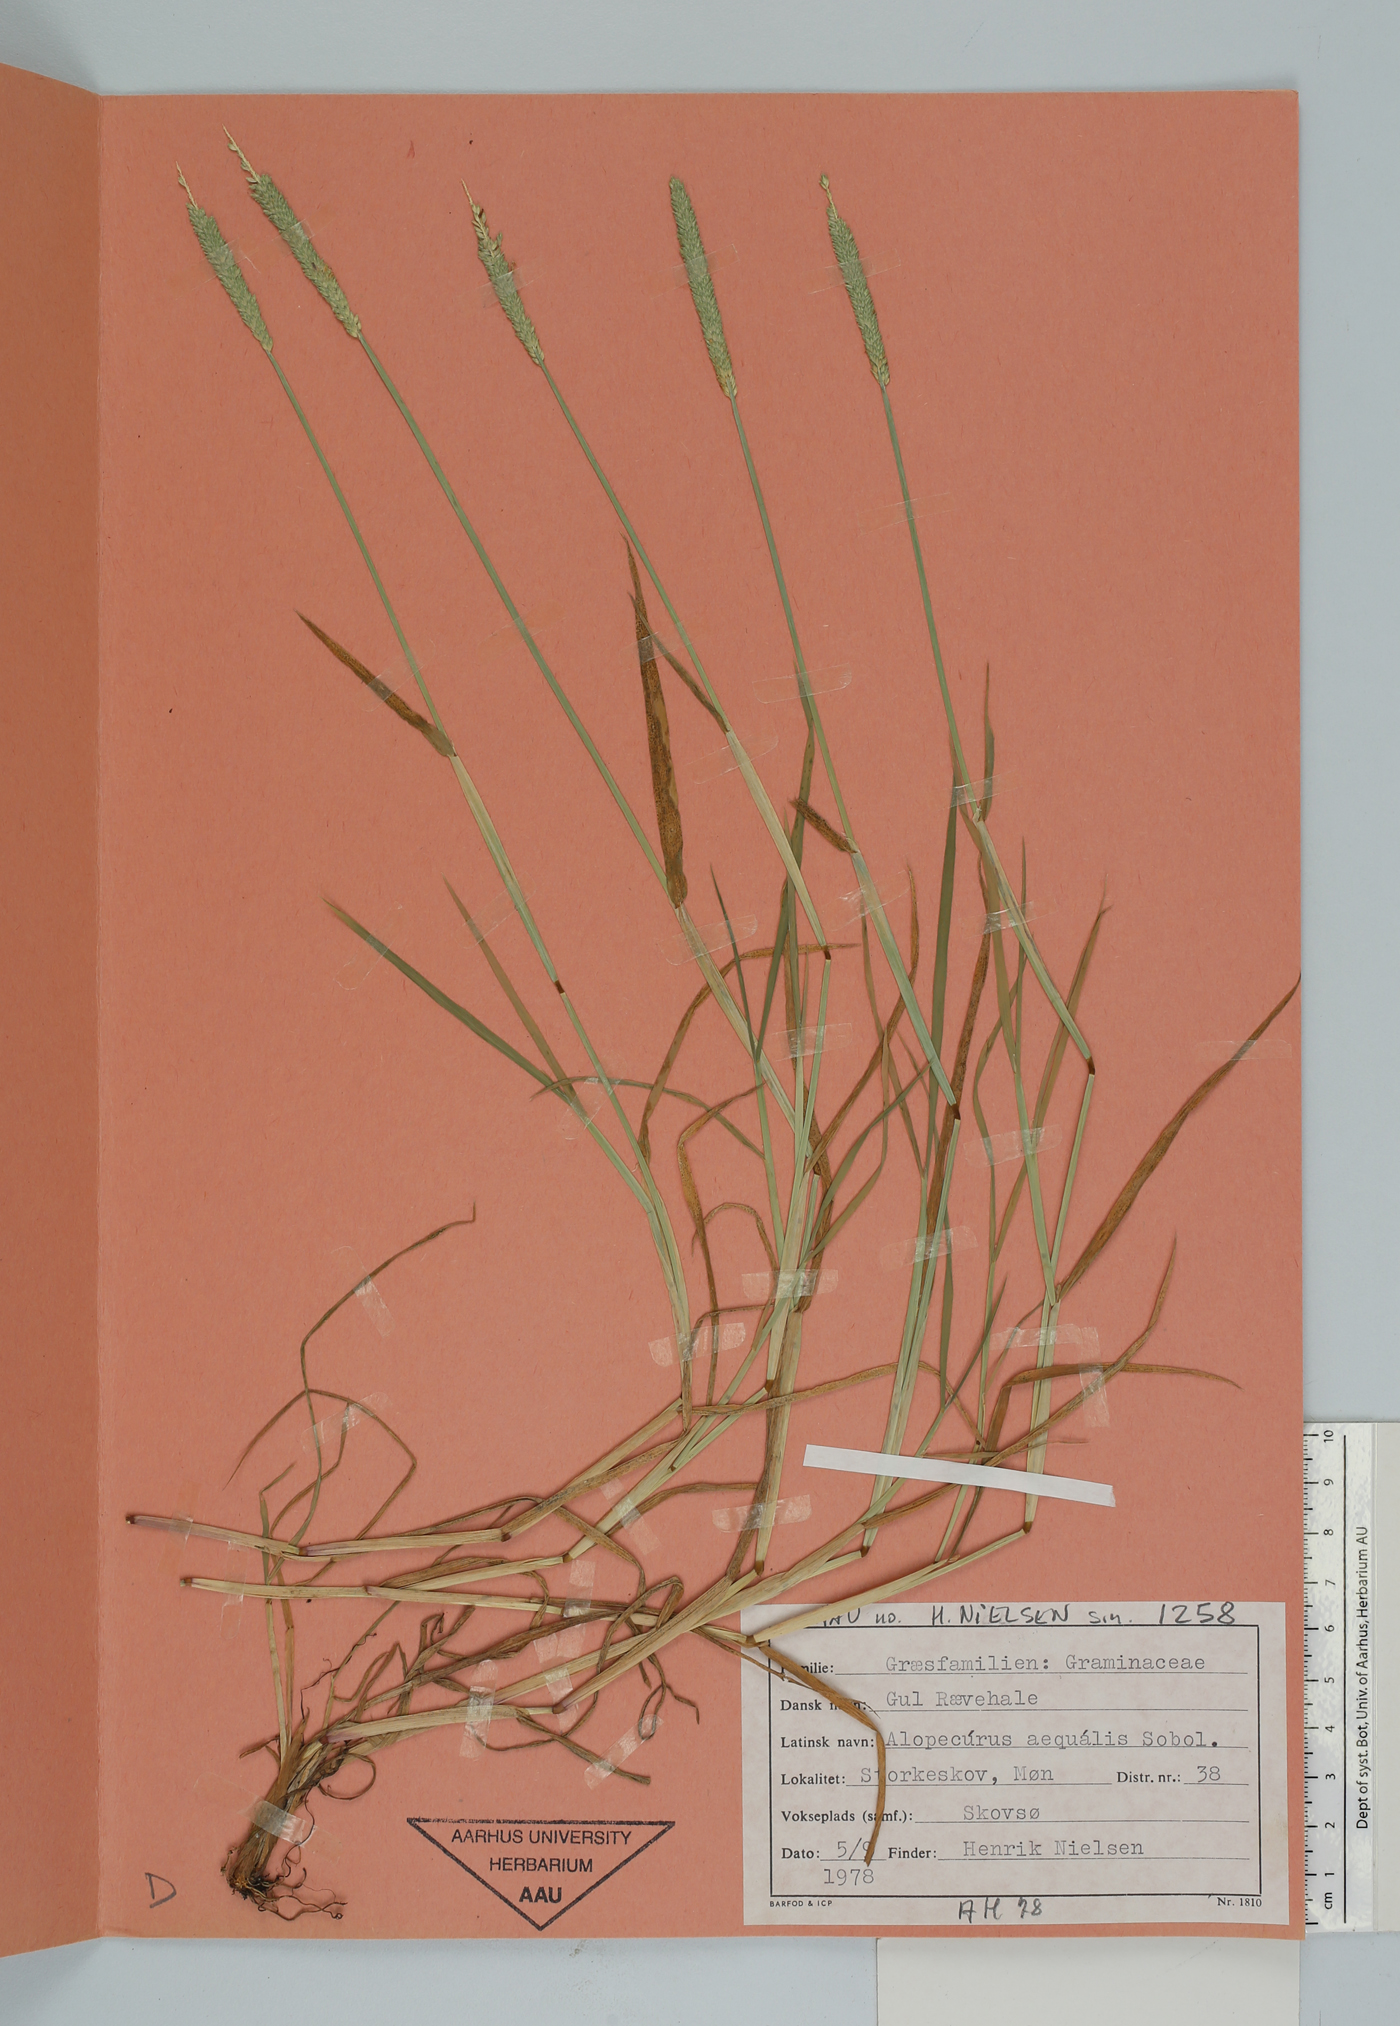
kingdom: Plantae
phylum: Tracheophyta
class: Liliopsida
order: Poales
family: Poaceae
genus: Alopecurus
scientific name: Alopecurus aequalis
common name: Orange foxtail
